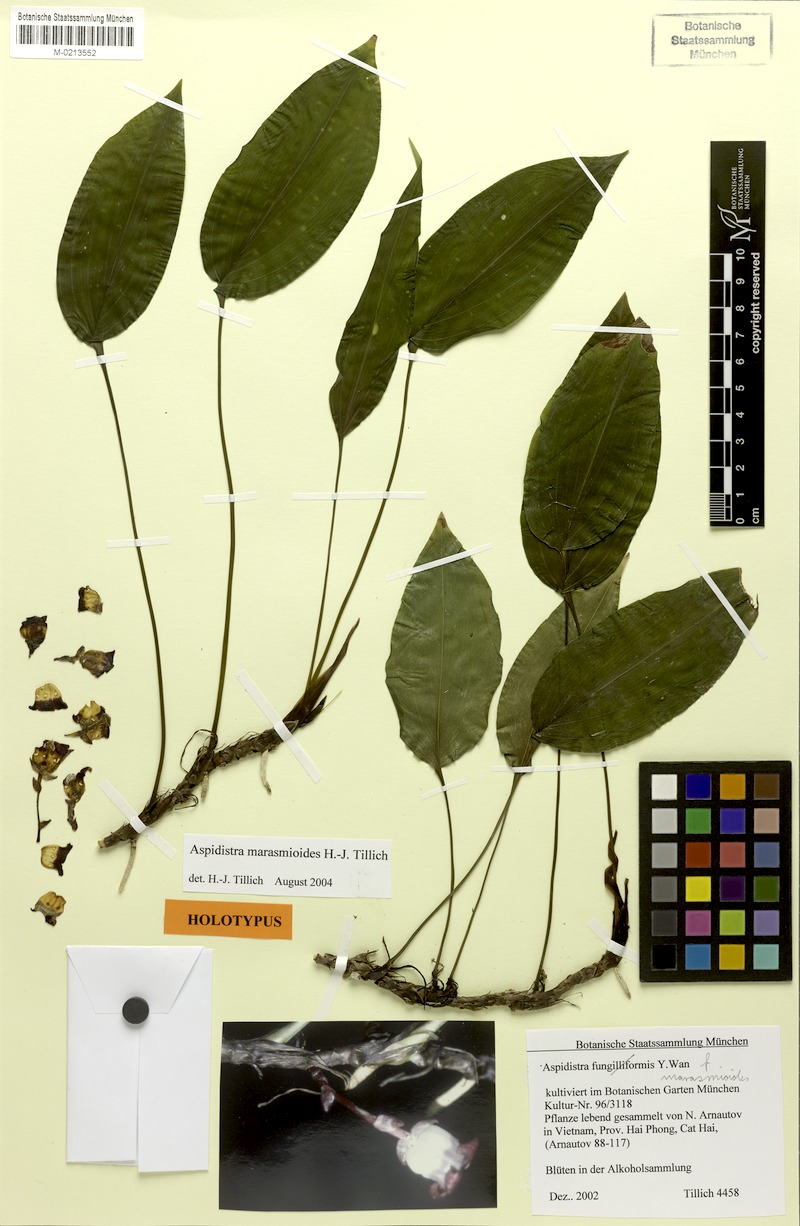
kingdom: Plantae
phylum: Tracheophyta
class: Liliopsida
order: Asparagales
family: Asparagaceae
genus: Aspidistra
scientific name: Aspidistra marasmioides
